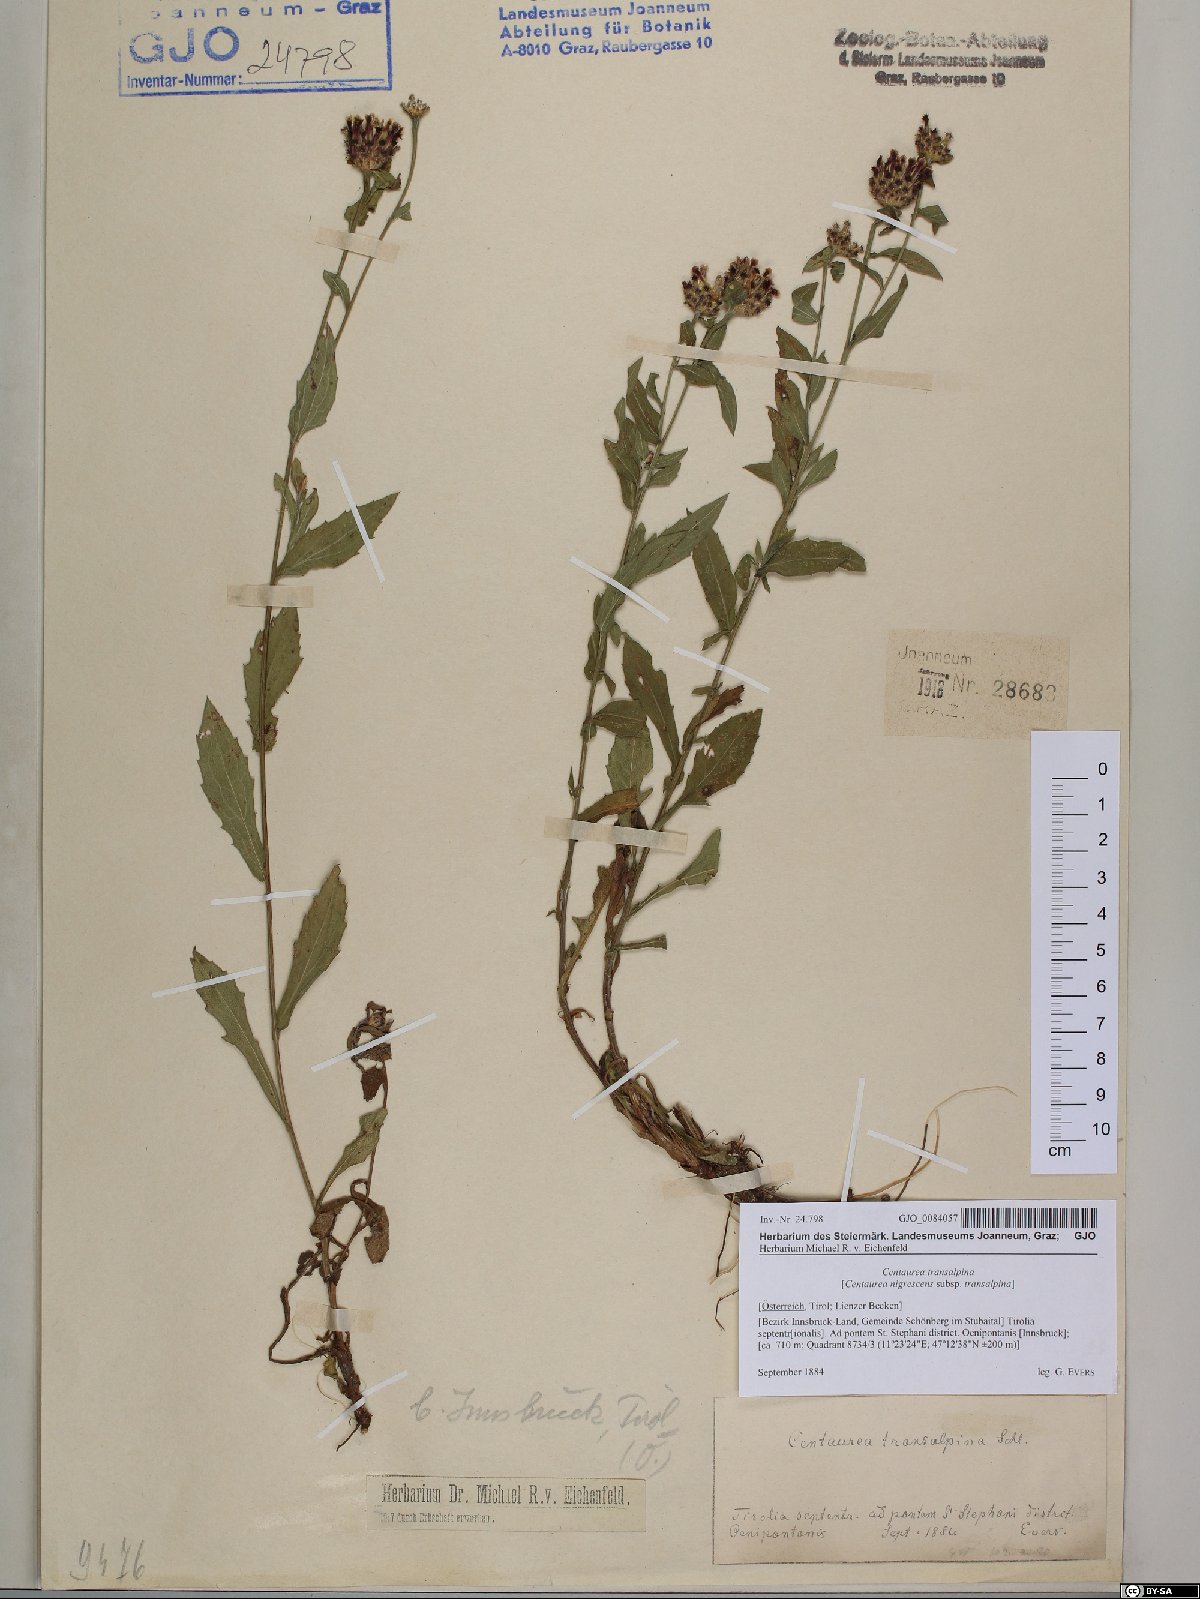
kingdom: Plantae
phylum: Tracheophyta
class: Magnoliopsida
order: Asterales
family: Asteraceae
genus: Centaurea
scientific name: Centaurea nigrescens
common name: Tyrol knapweed
